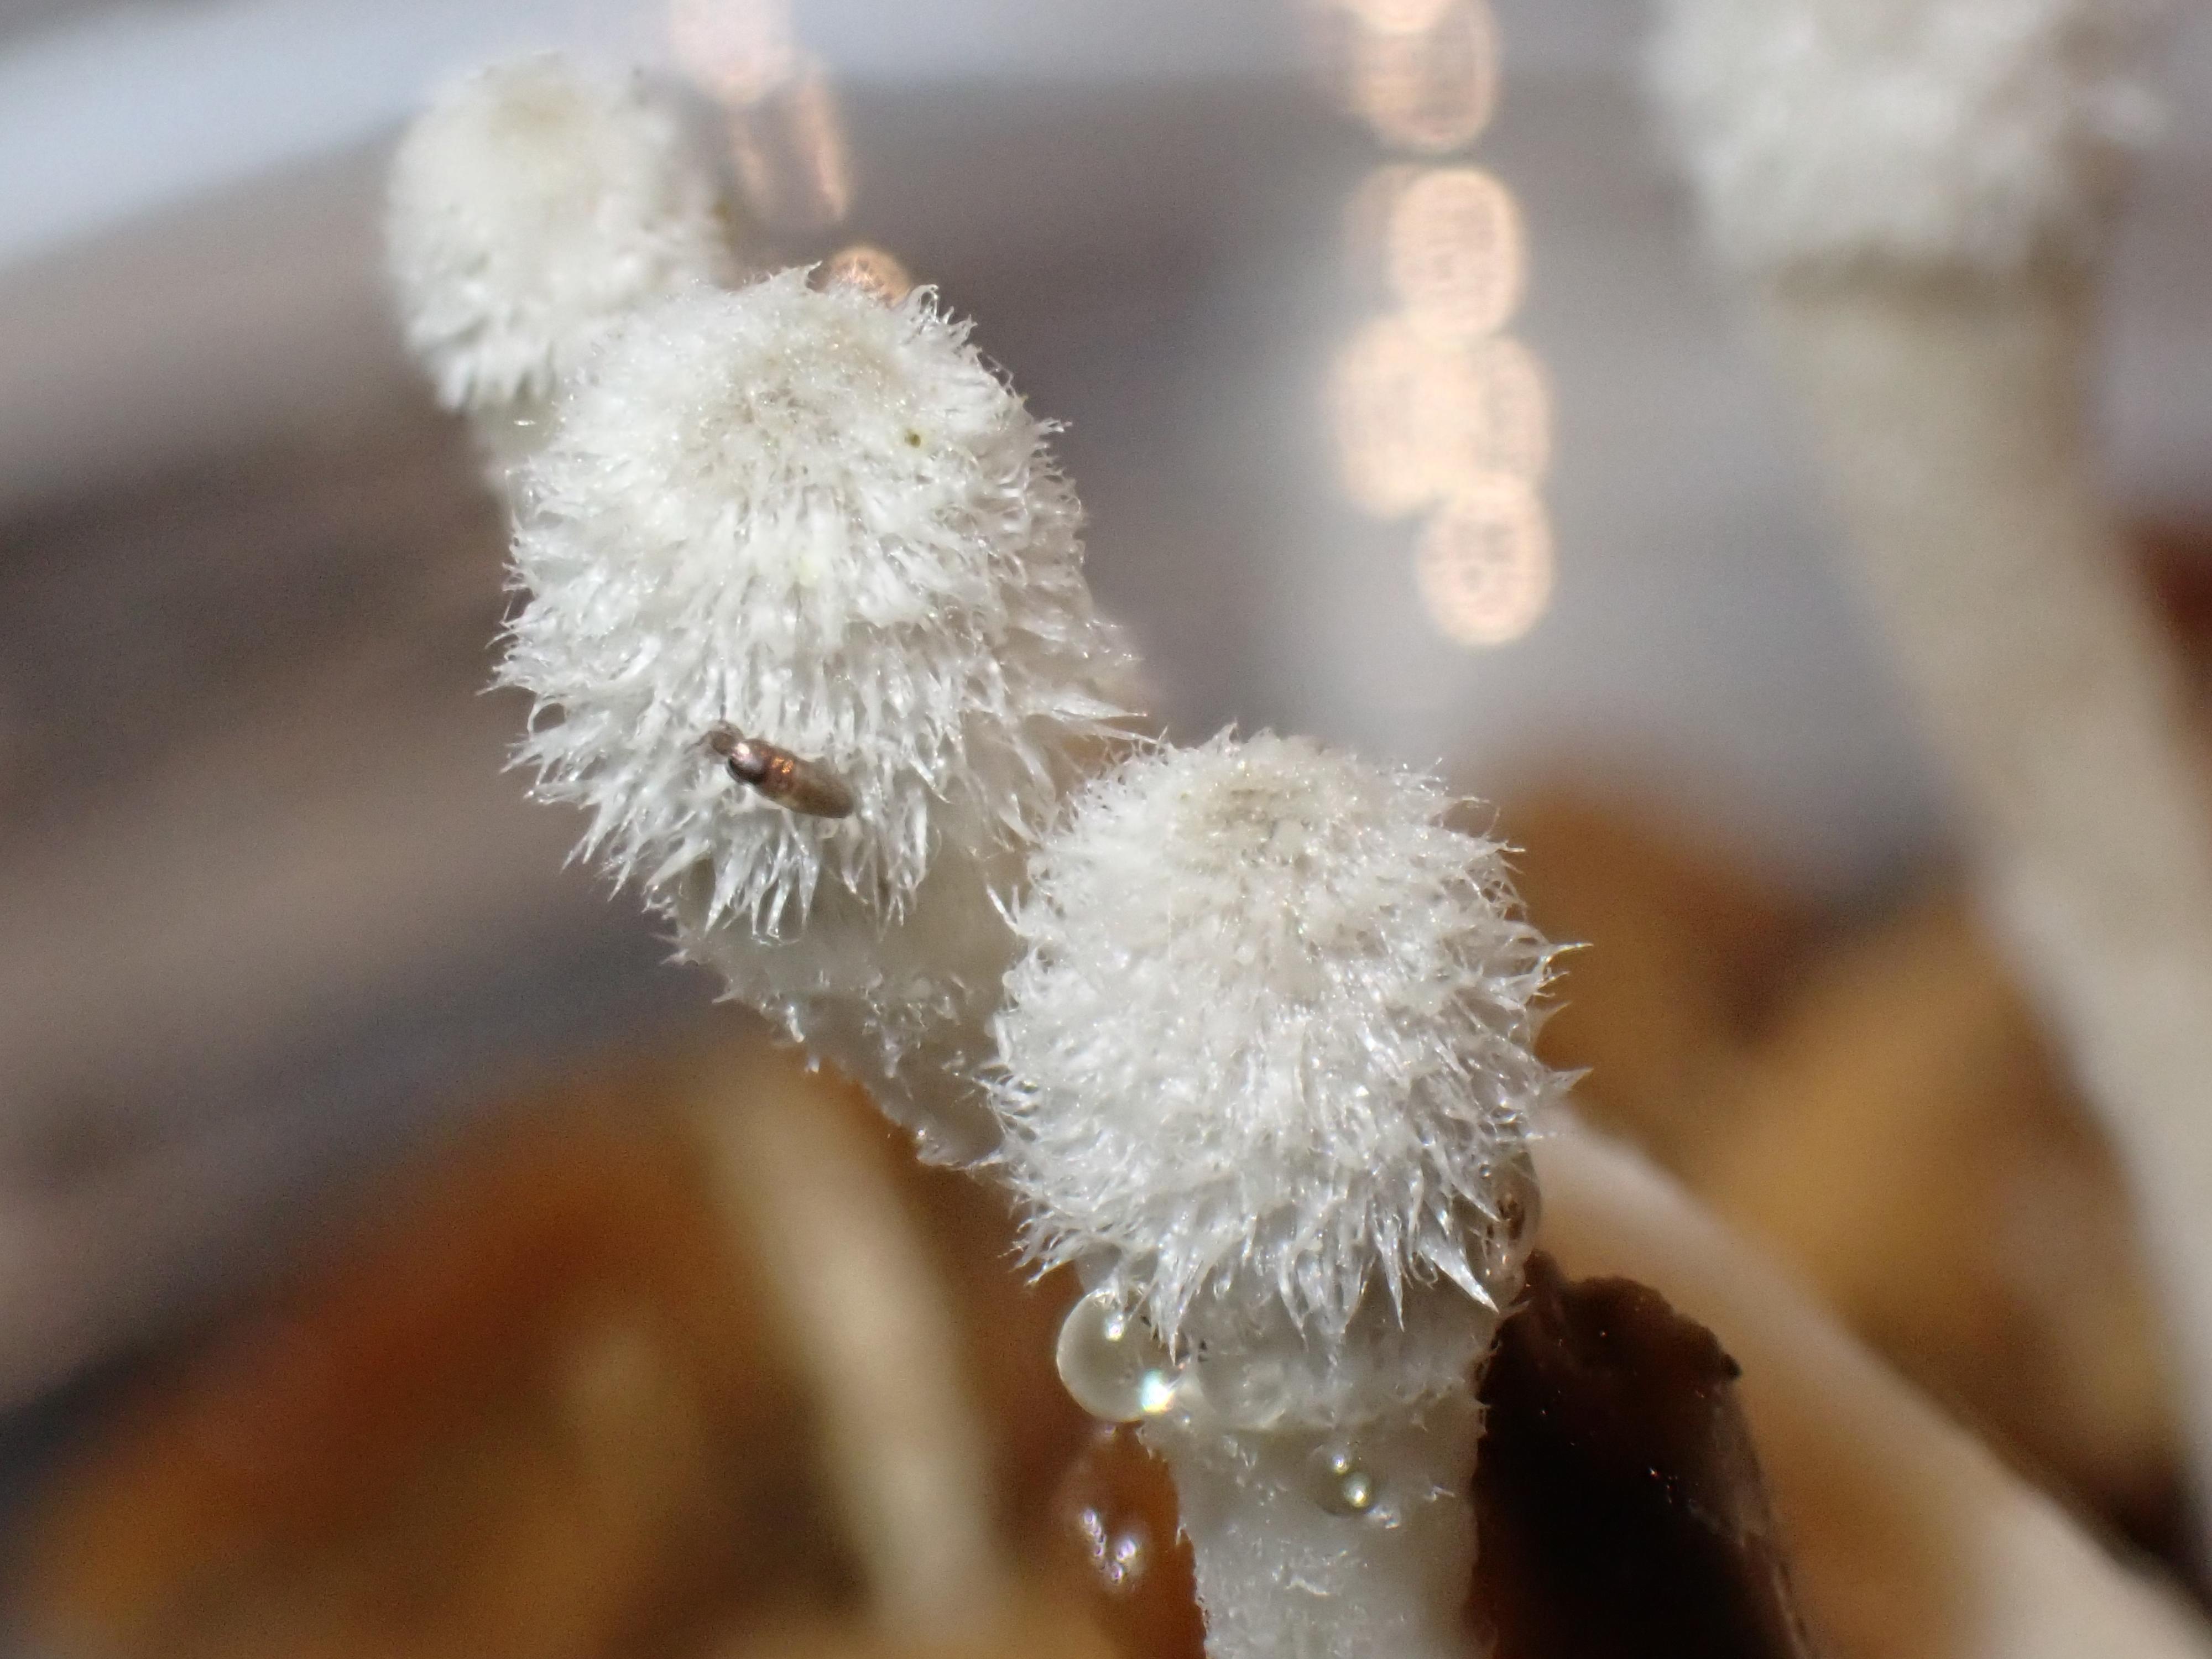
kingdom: Fungi
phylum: Basidiomycota
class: Agaricomycetes
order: Agaricales
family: Psathyrellaceae
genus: Coprinopsis
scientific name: Coprinopsis
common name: blækhat
